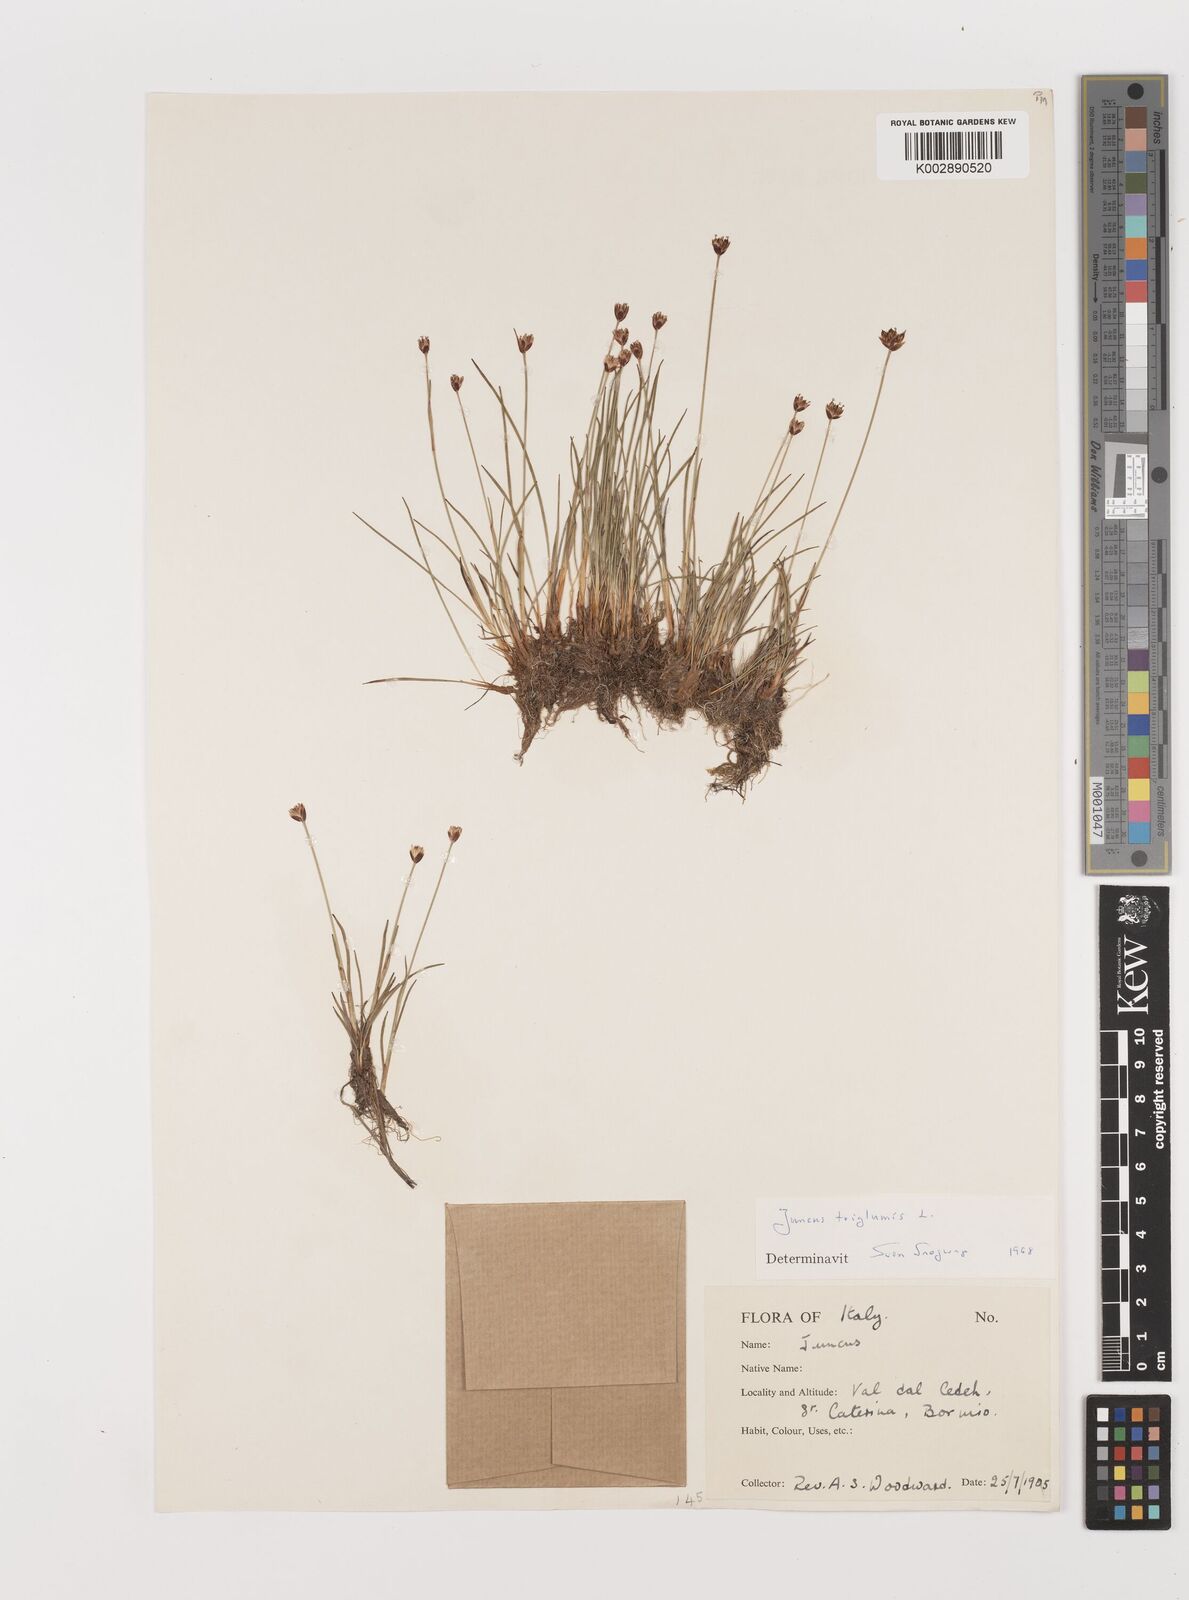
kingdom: Plantae
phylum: Tracheophyta
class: Liliopsida
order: Poales
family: Juncaceae
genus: Juncus
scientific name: Juncus triglumis
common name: Three-flowered rush
